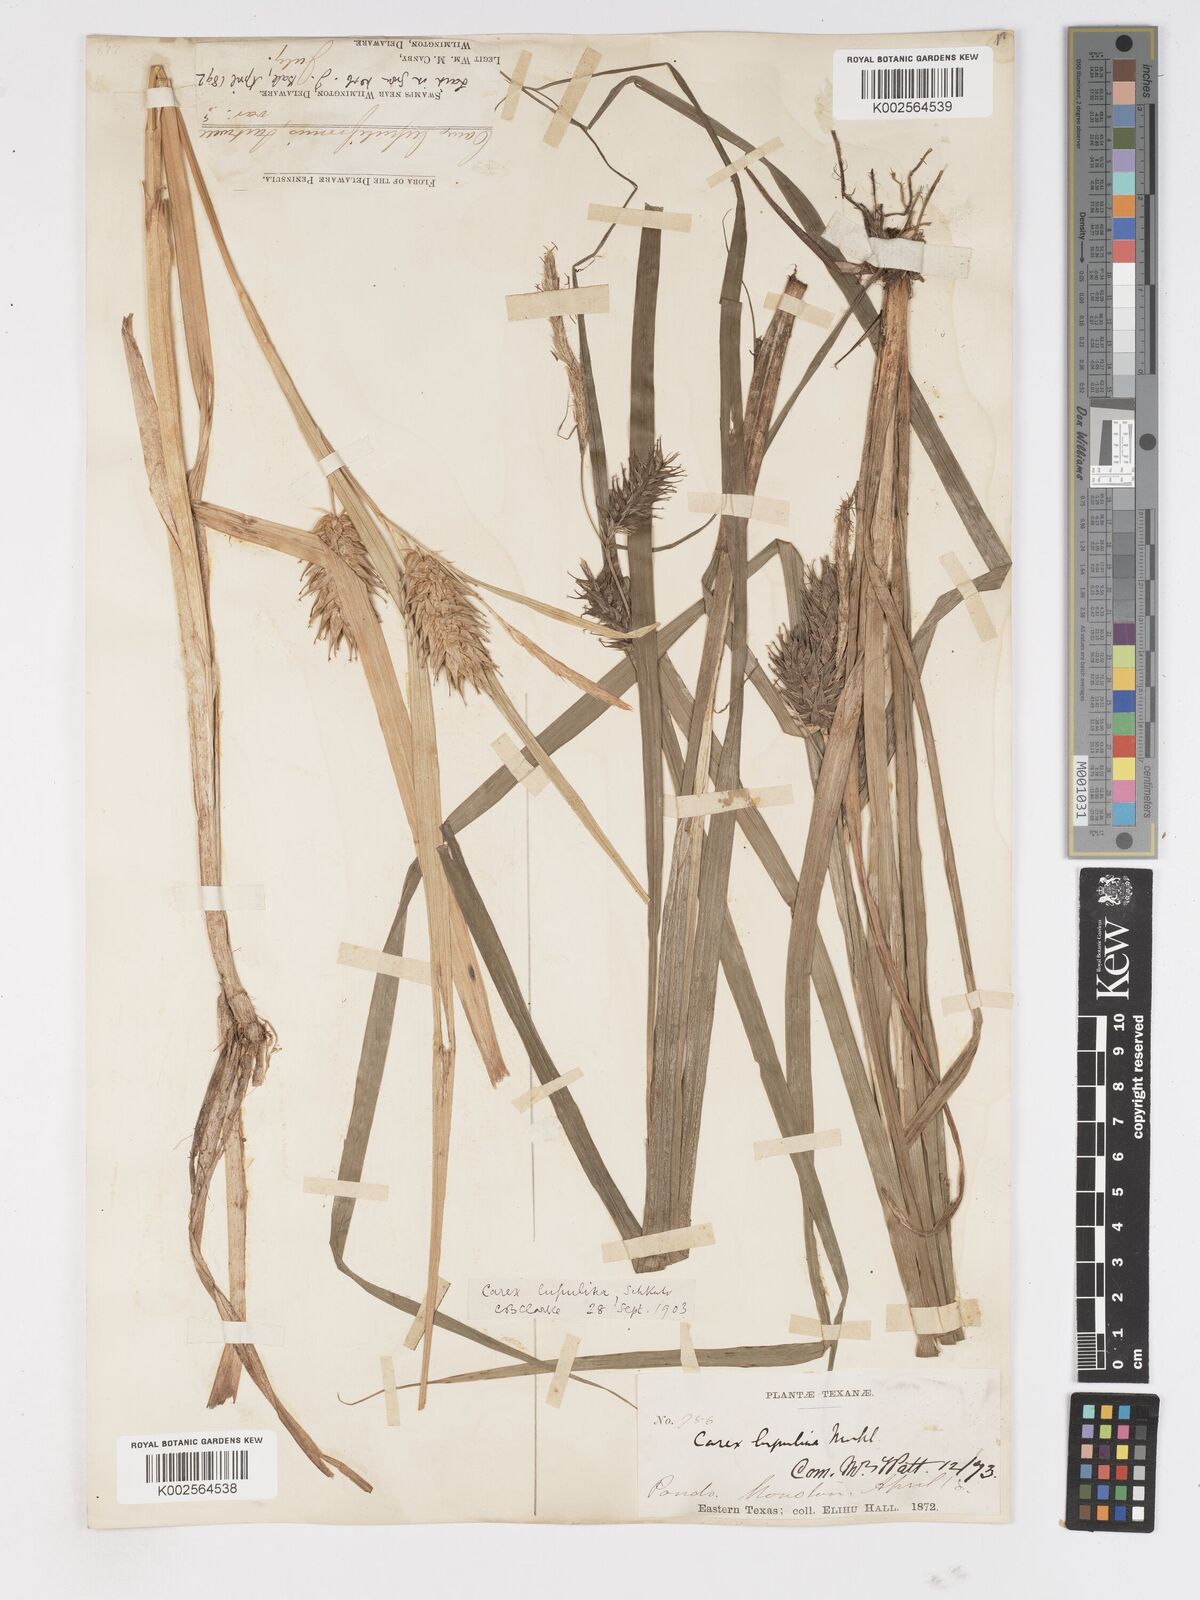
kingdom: Plantae
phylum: Tracheophyta
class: Liliopsida
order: Poales
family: Cyperaceae
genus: Carex
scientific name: Carex lupulina
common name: Hop sedge
